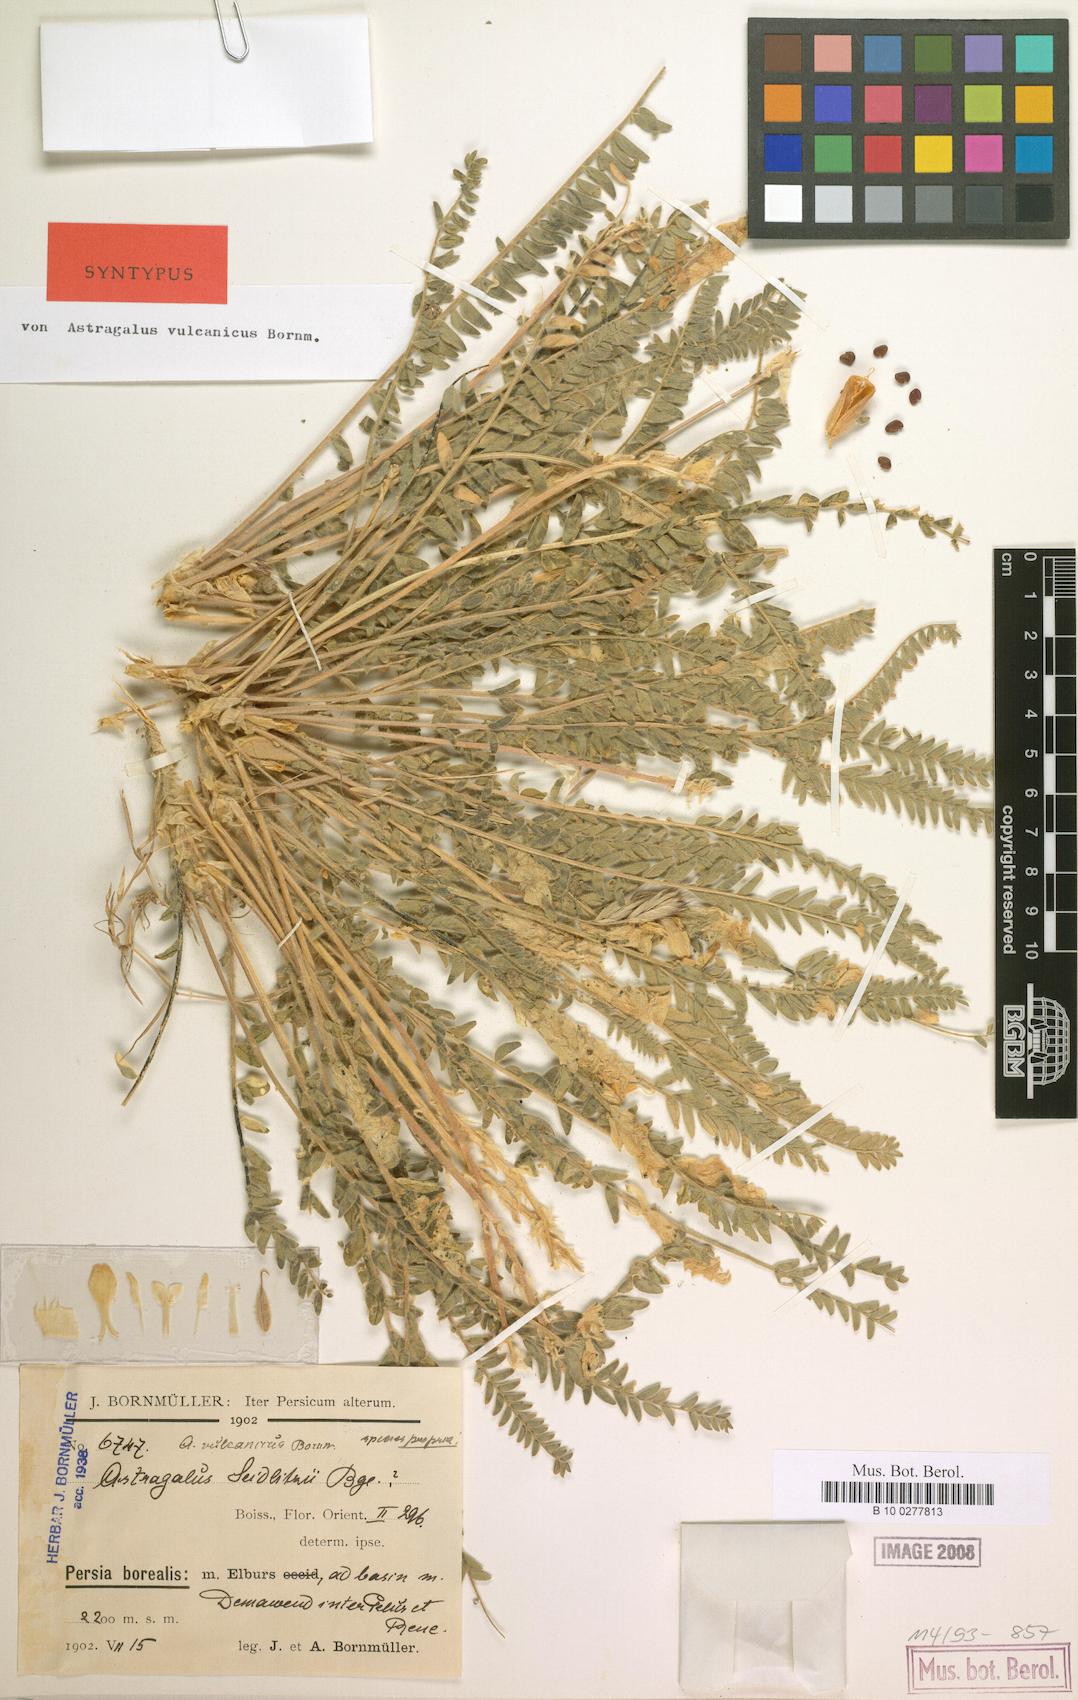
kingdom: Plantae
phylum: Tracheophyta
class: Magnoliopsida
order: Fabales
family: Fabaceae
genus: Astragalus
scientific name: Astragalus vulcanicus
